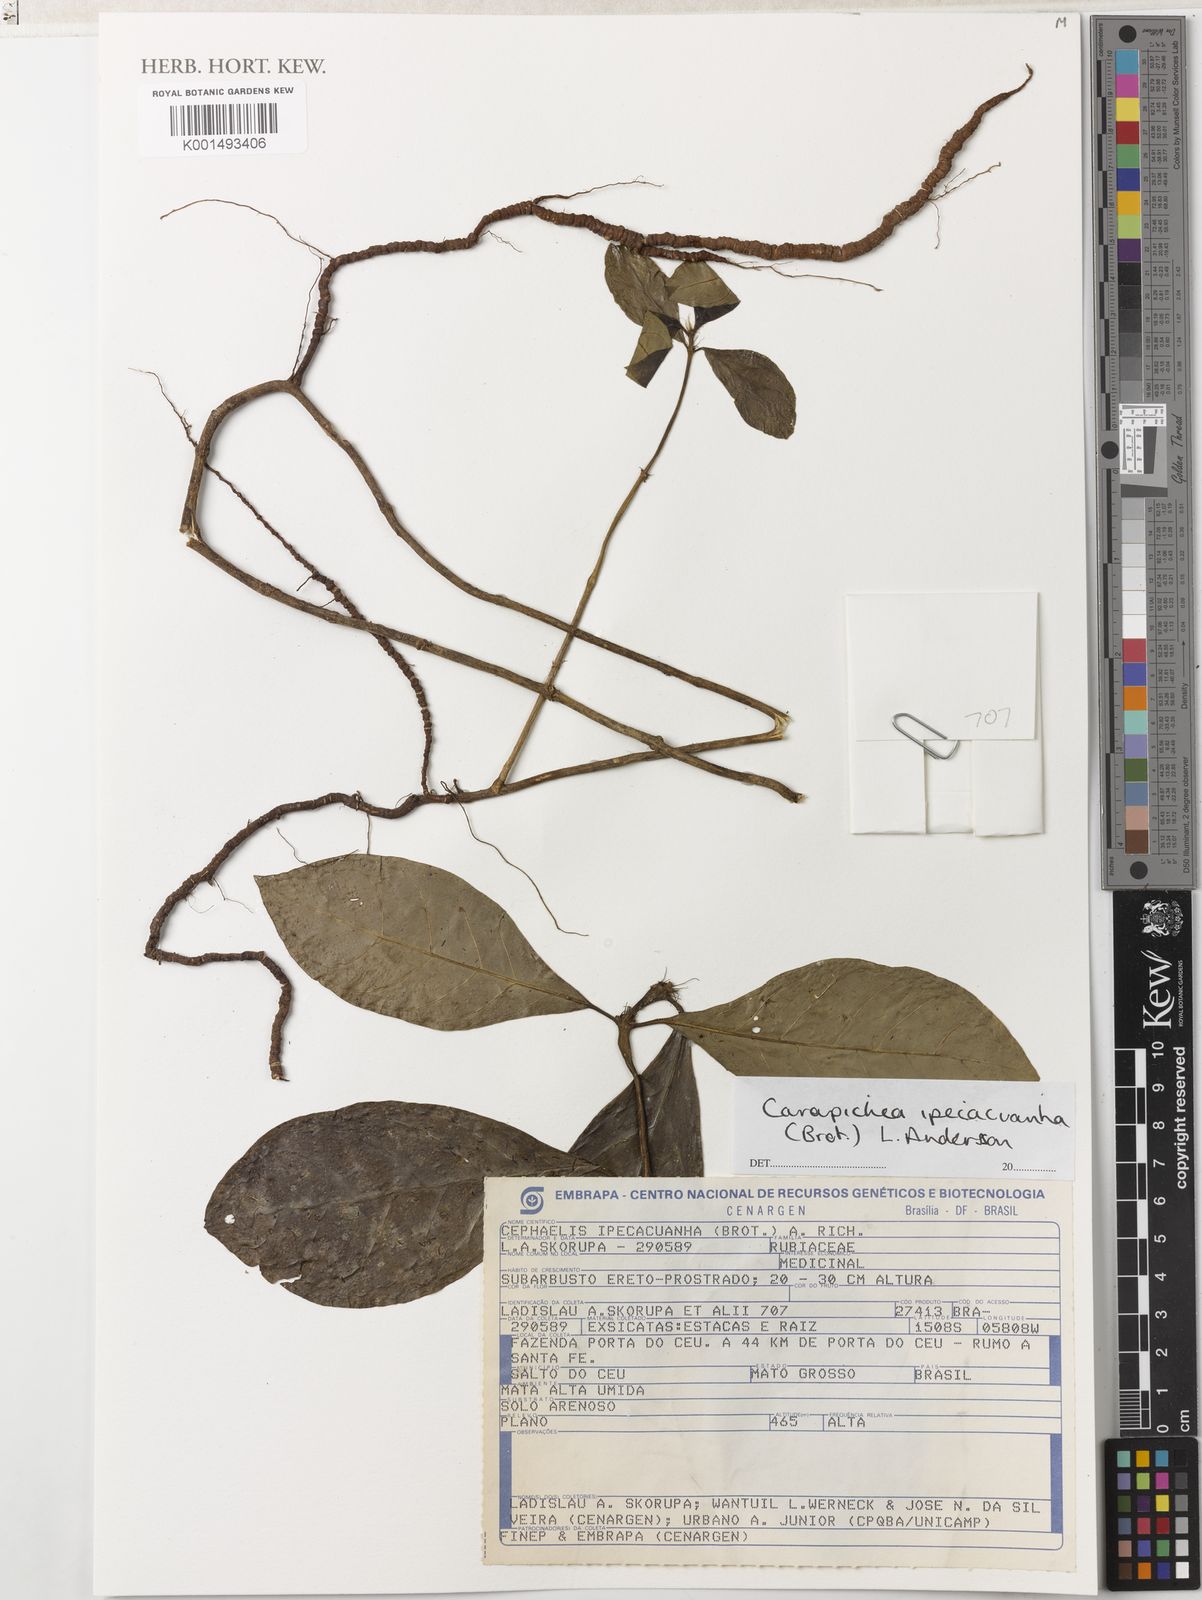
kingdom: Plantae
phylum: Tracheophyta
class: Magnoliopsida
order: Gentianales
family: Rubiaceae
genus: Carapichea
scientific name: Carapichea ipecacuanha
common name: Ipecac
